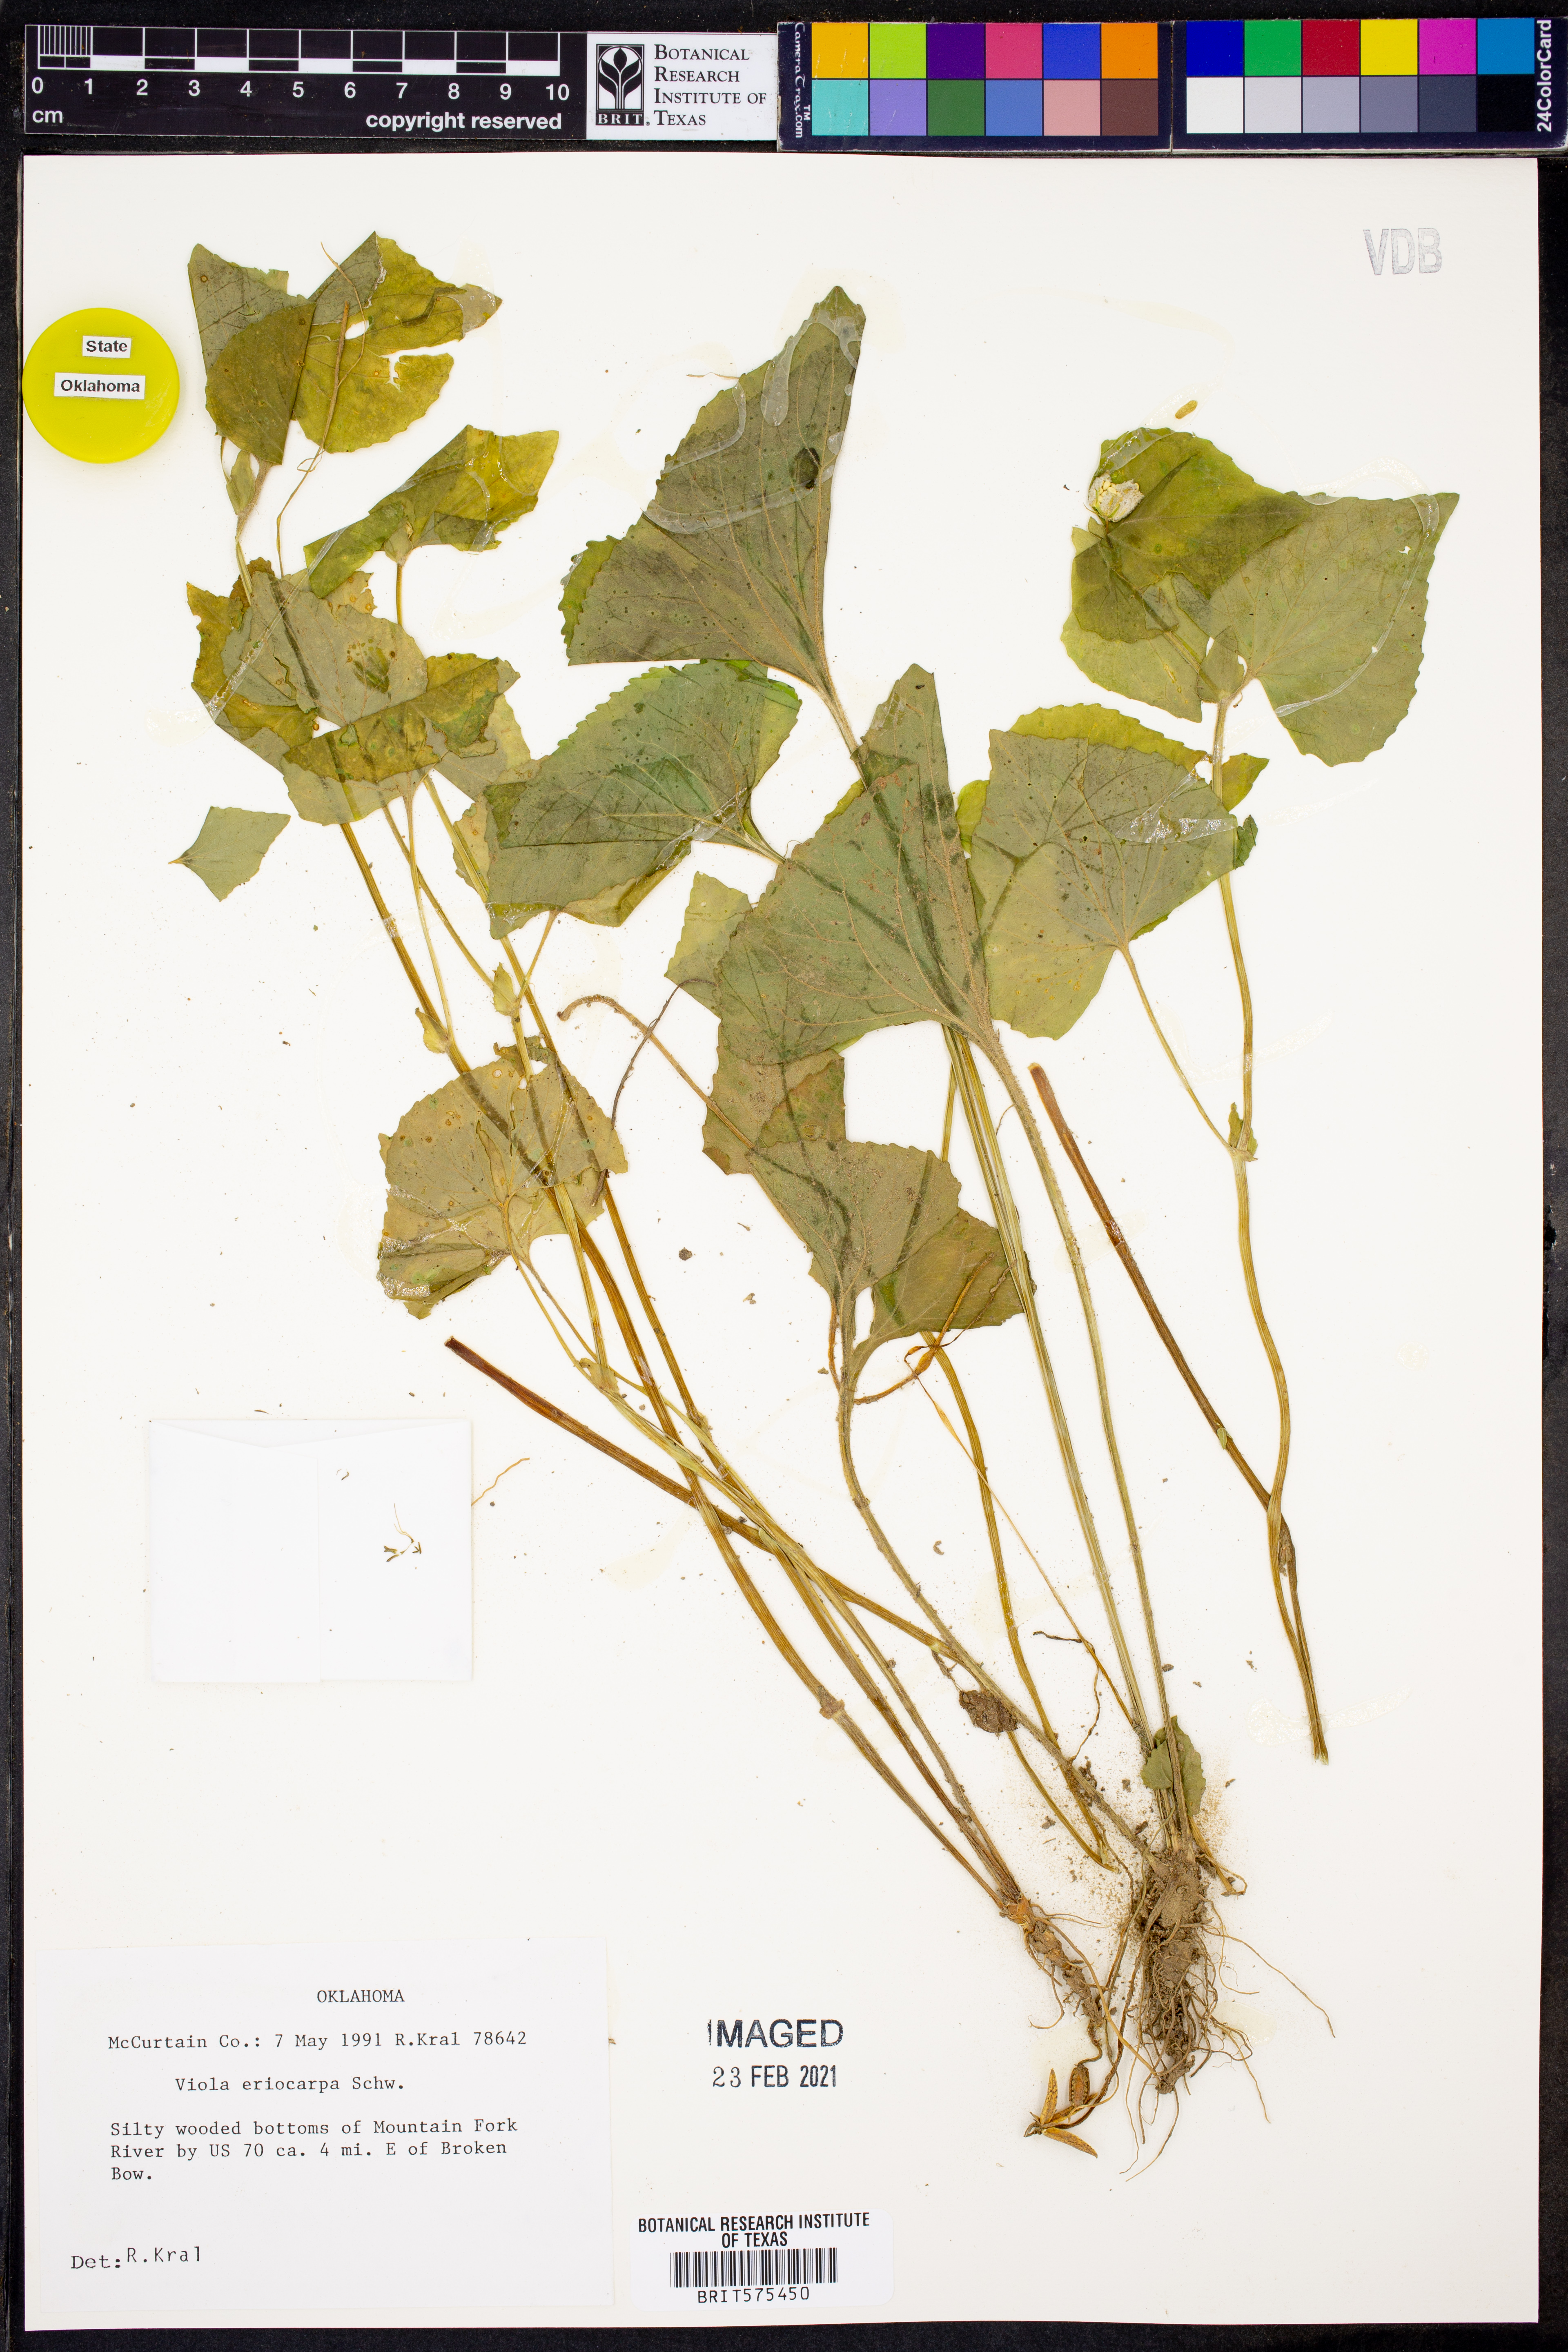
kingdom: Plantae
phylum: Tracheophyta
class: Magnoliopsida
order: Malpighiales
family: Violaceae
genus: Viola
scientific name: Viola eriocarpa
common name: Smooth yellow violet
